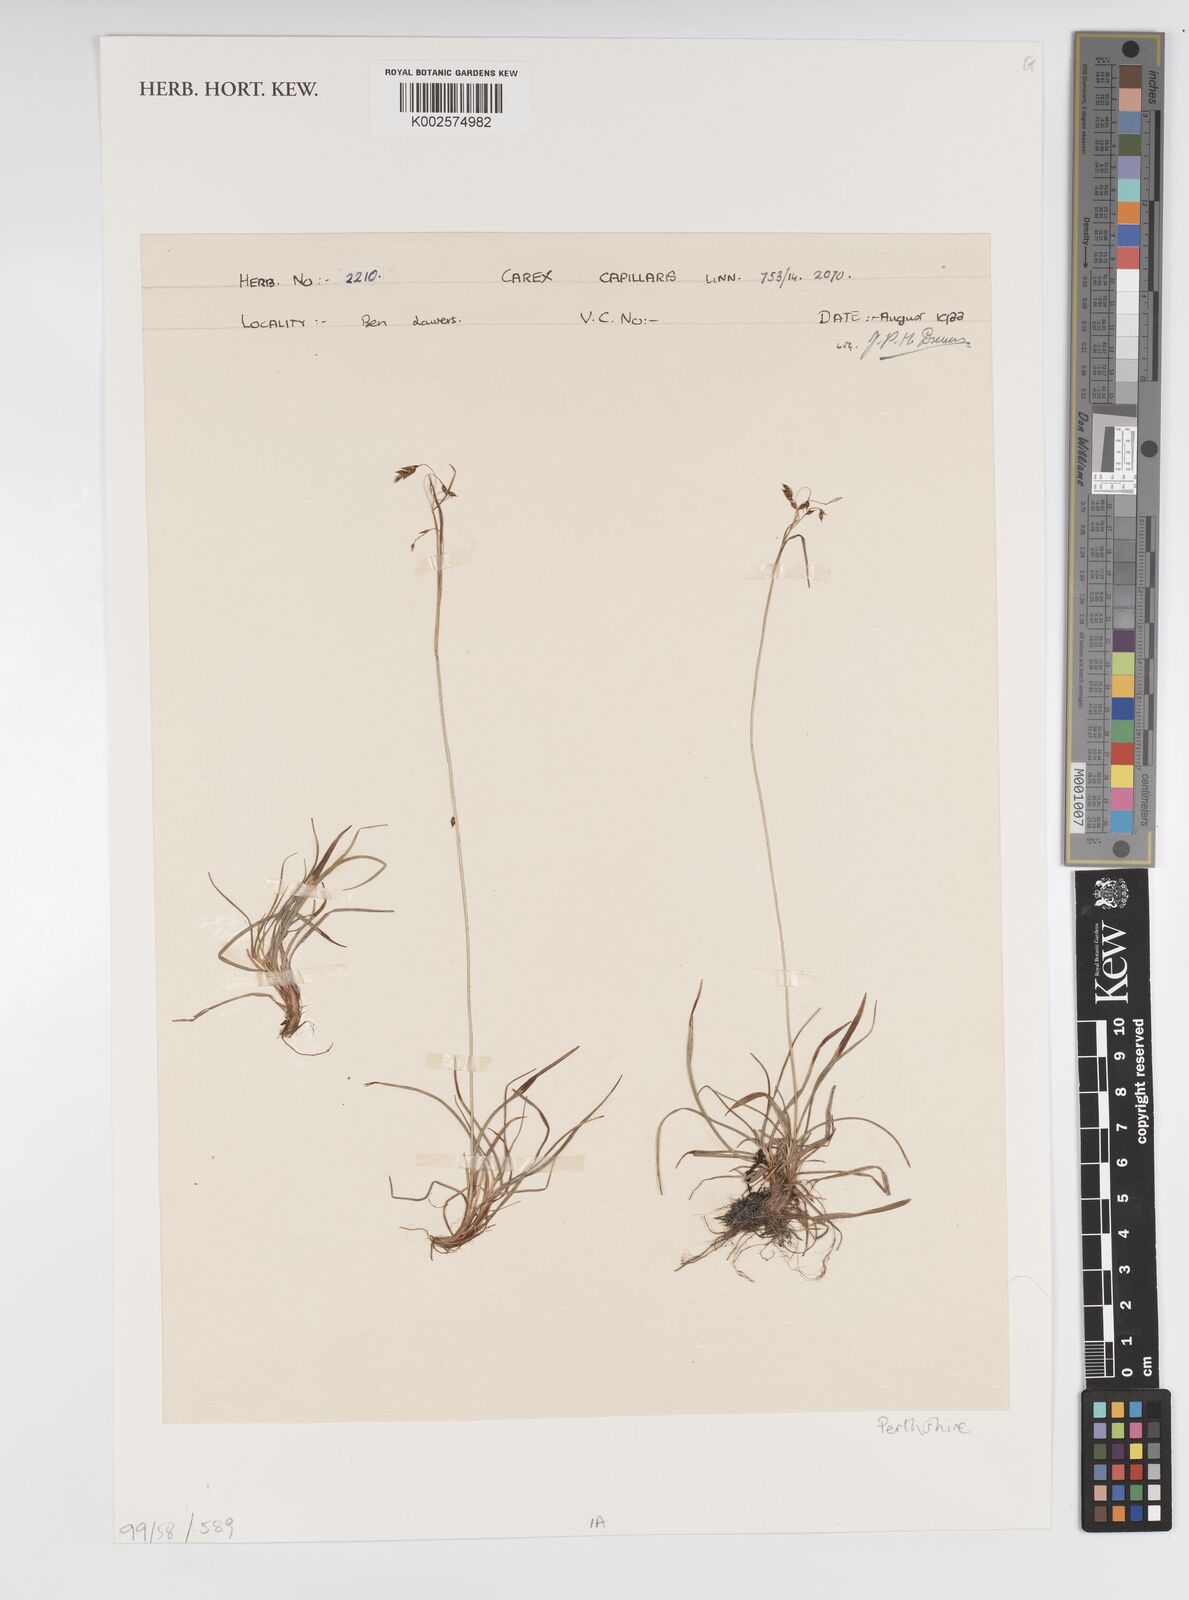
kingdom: Plantae
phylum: Tracheophyta
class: Liliopsida
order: Poales
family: Cyperaceae
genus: Carex
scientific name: Carex capillaris
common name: Hair sedge
